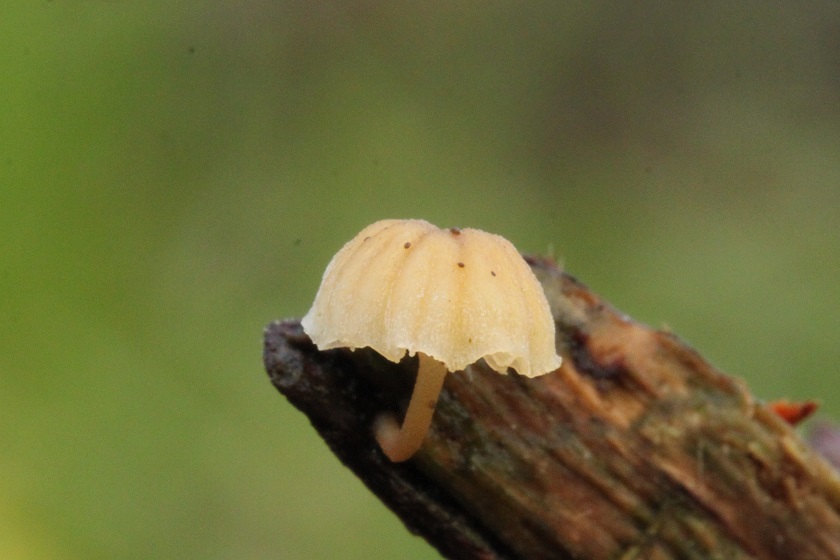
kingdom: Fungi
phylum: Basidiomycota
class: Agaricomycetes
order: Agaricales
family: Mycenaceae
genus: Mycena
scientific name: Mycena juniperina
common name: ene-Huesvamp
